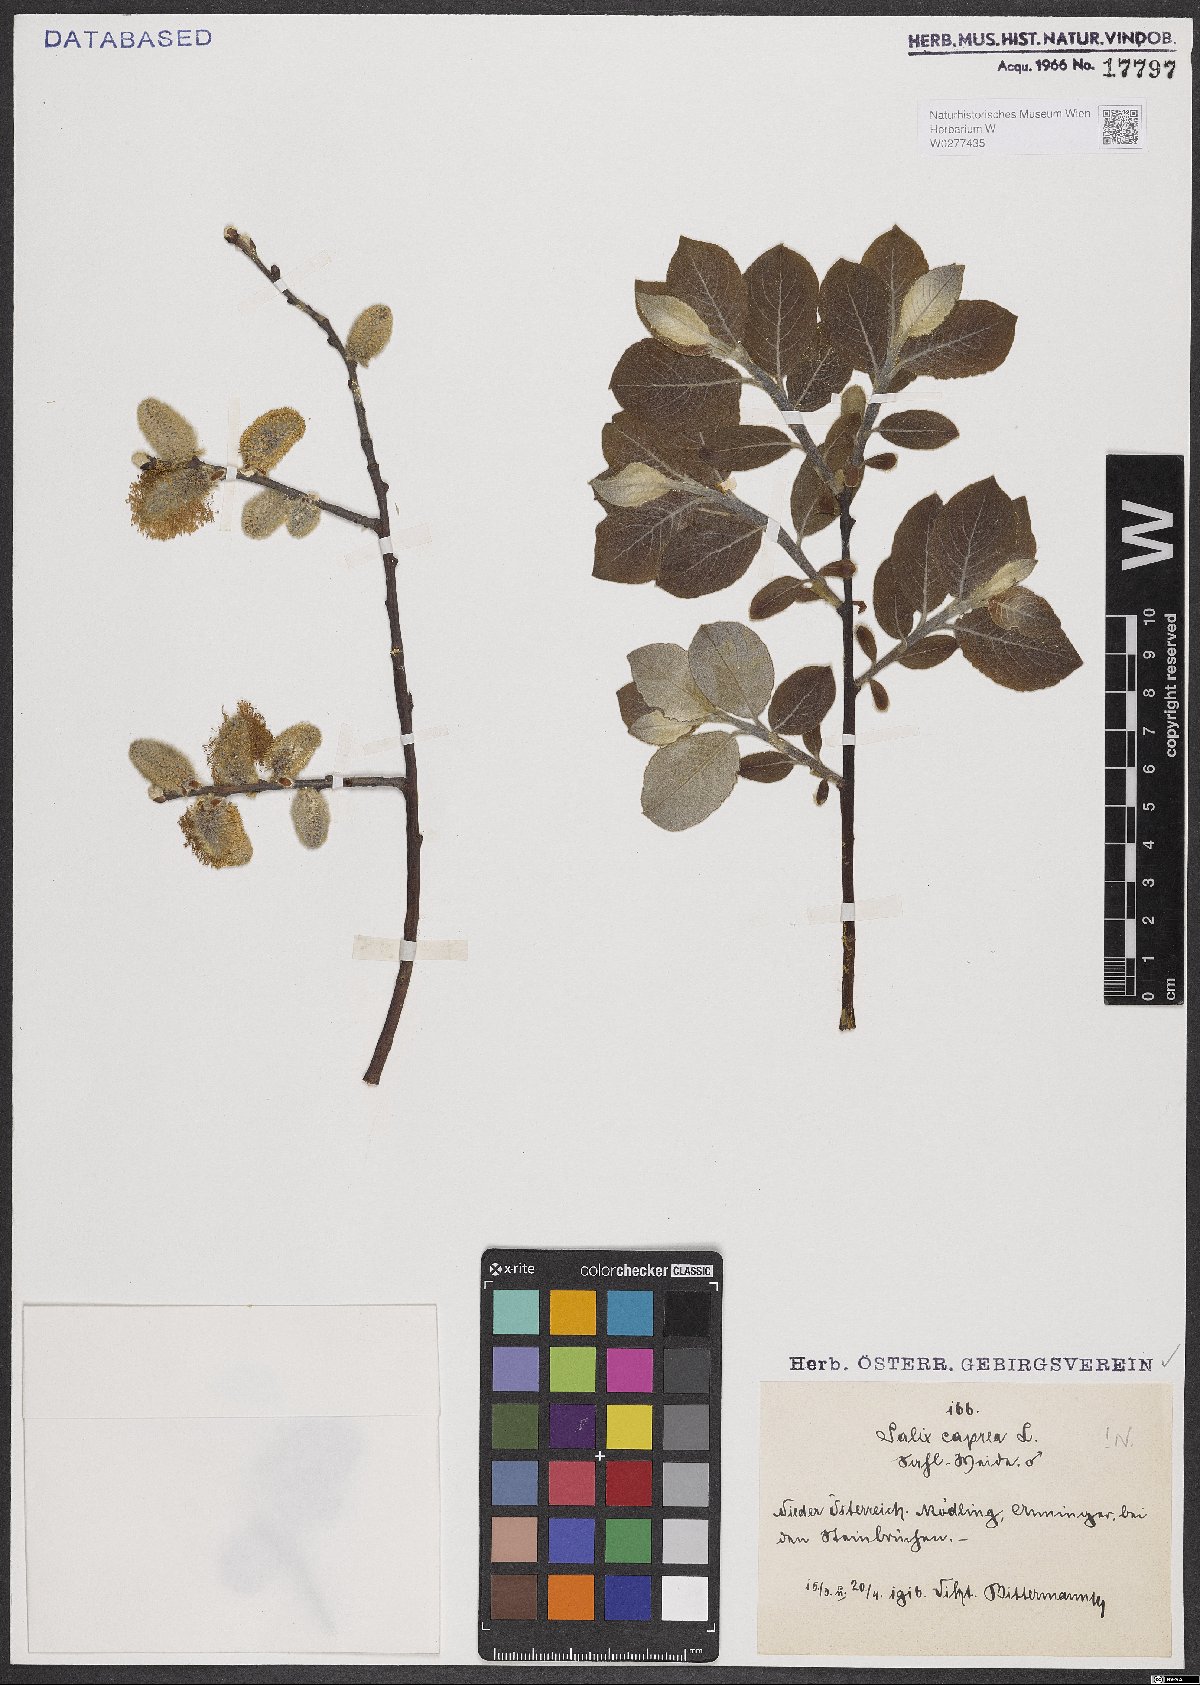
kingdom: Plantae
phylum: Tracheophyta
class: Magnoliopsida
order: Malpighiales
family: Salicaceae
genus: Salix
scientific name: Salix caprea
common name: Goat willow
